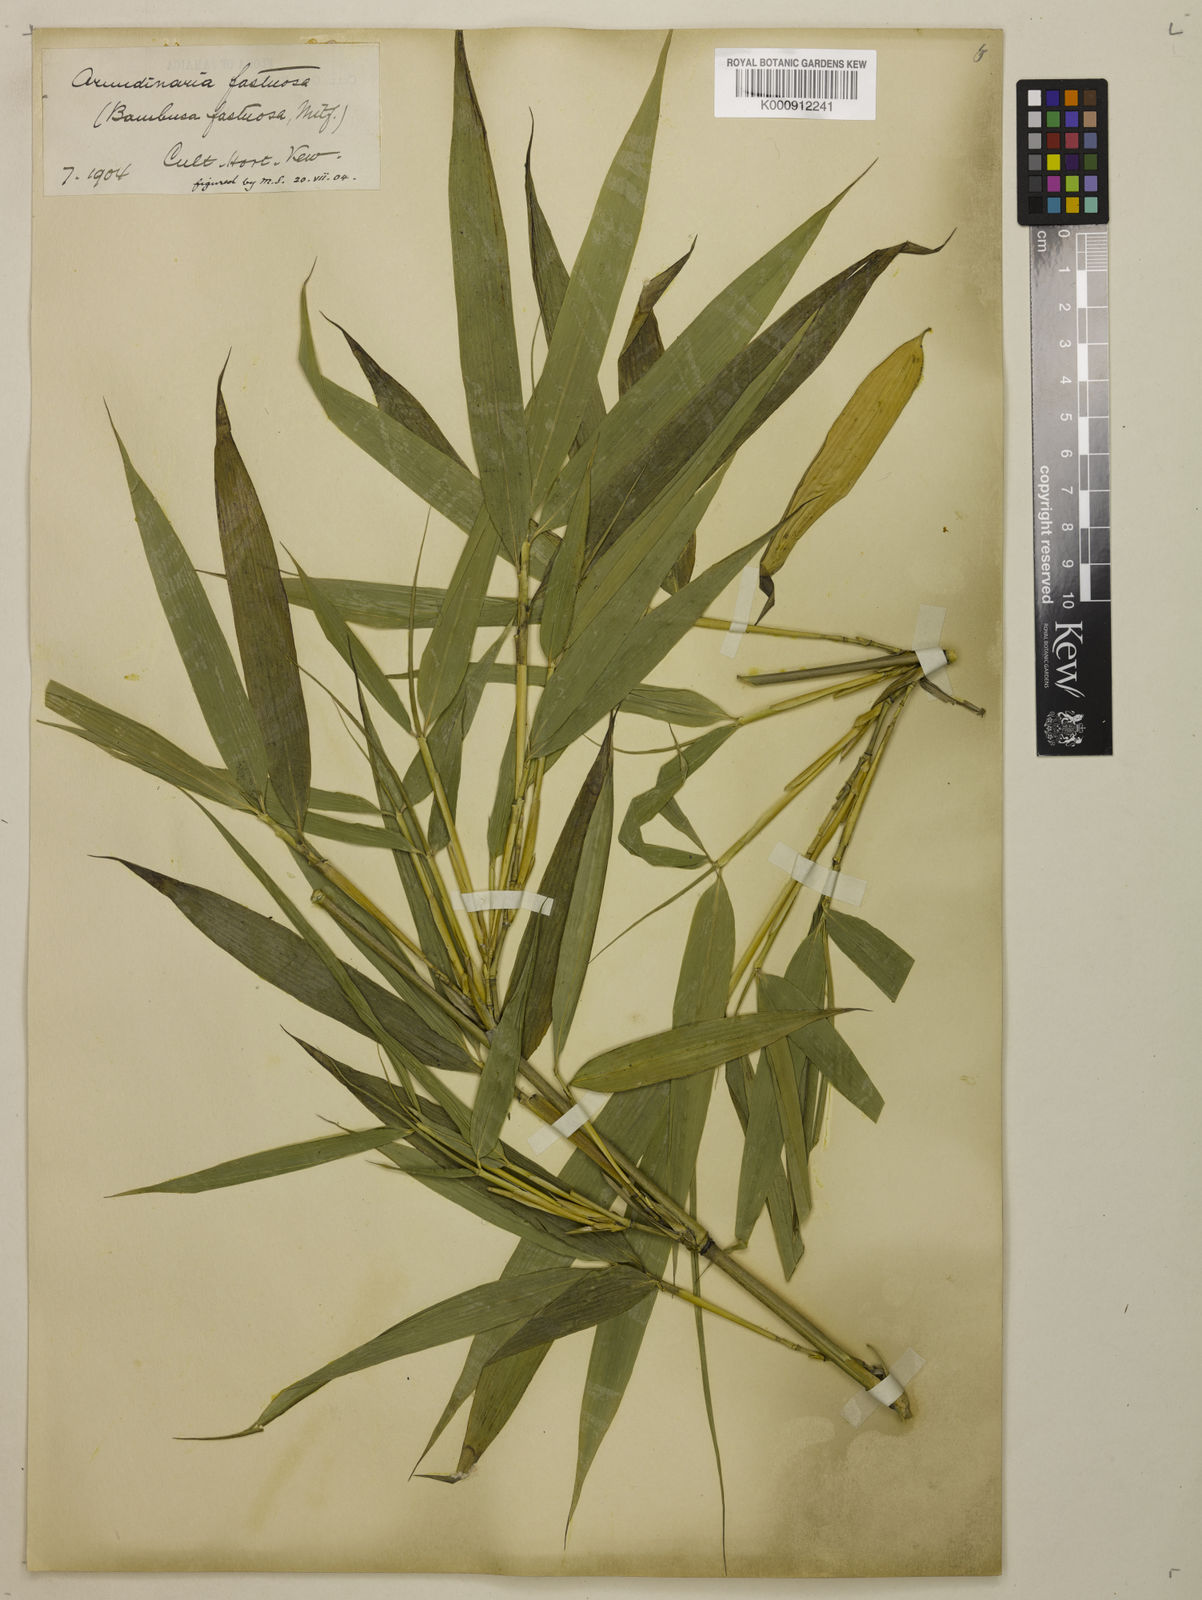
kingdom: Plantae
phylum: Tracheophyta
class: Liliopsida
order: Poales
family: Poaceae
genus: Semiarundinaria
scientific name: Semiarundinaria fastuosa
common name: Narihira bamboo
